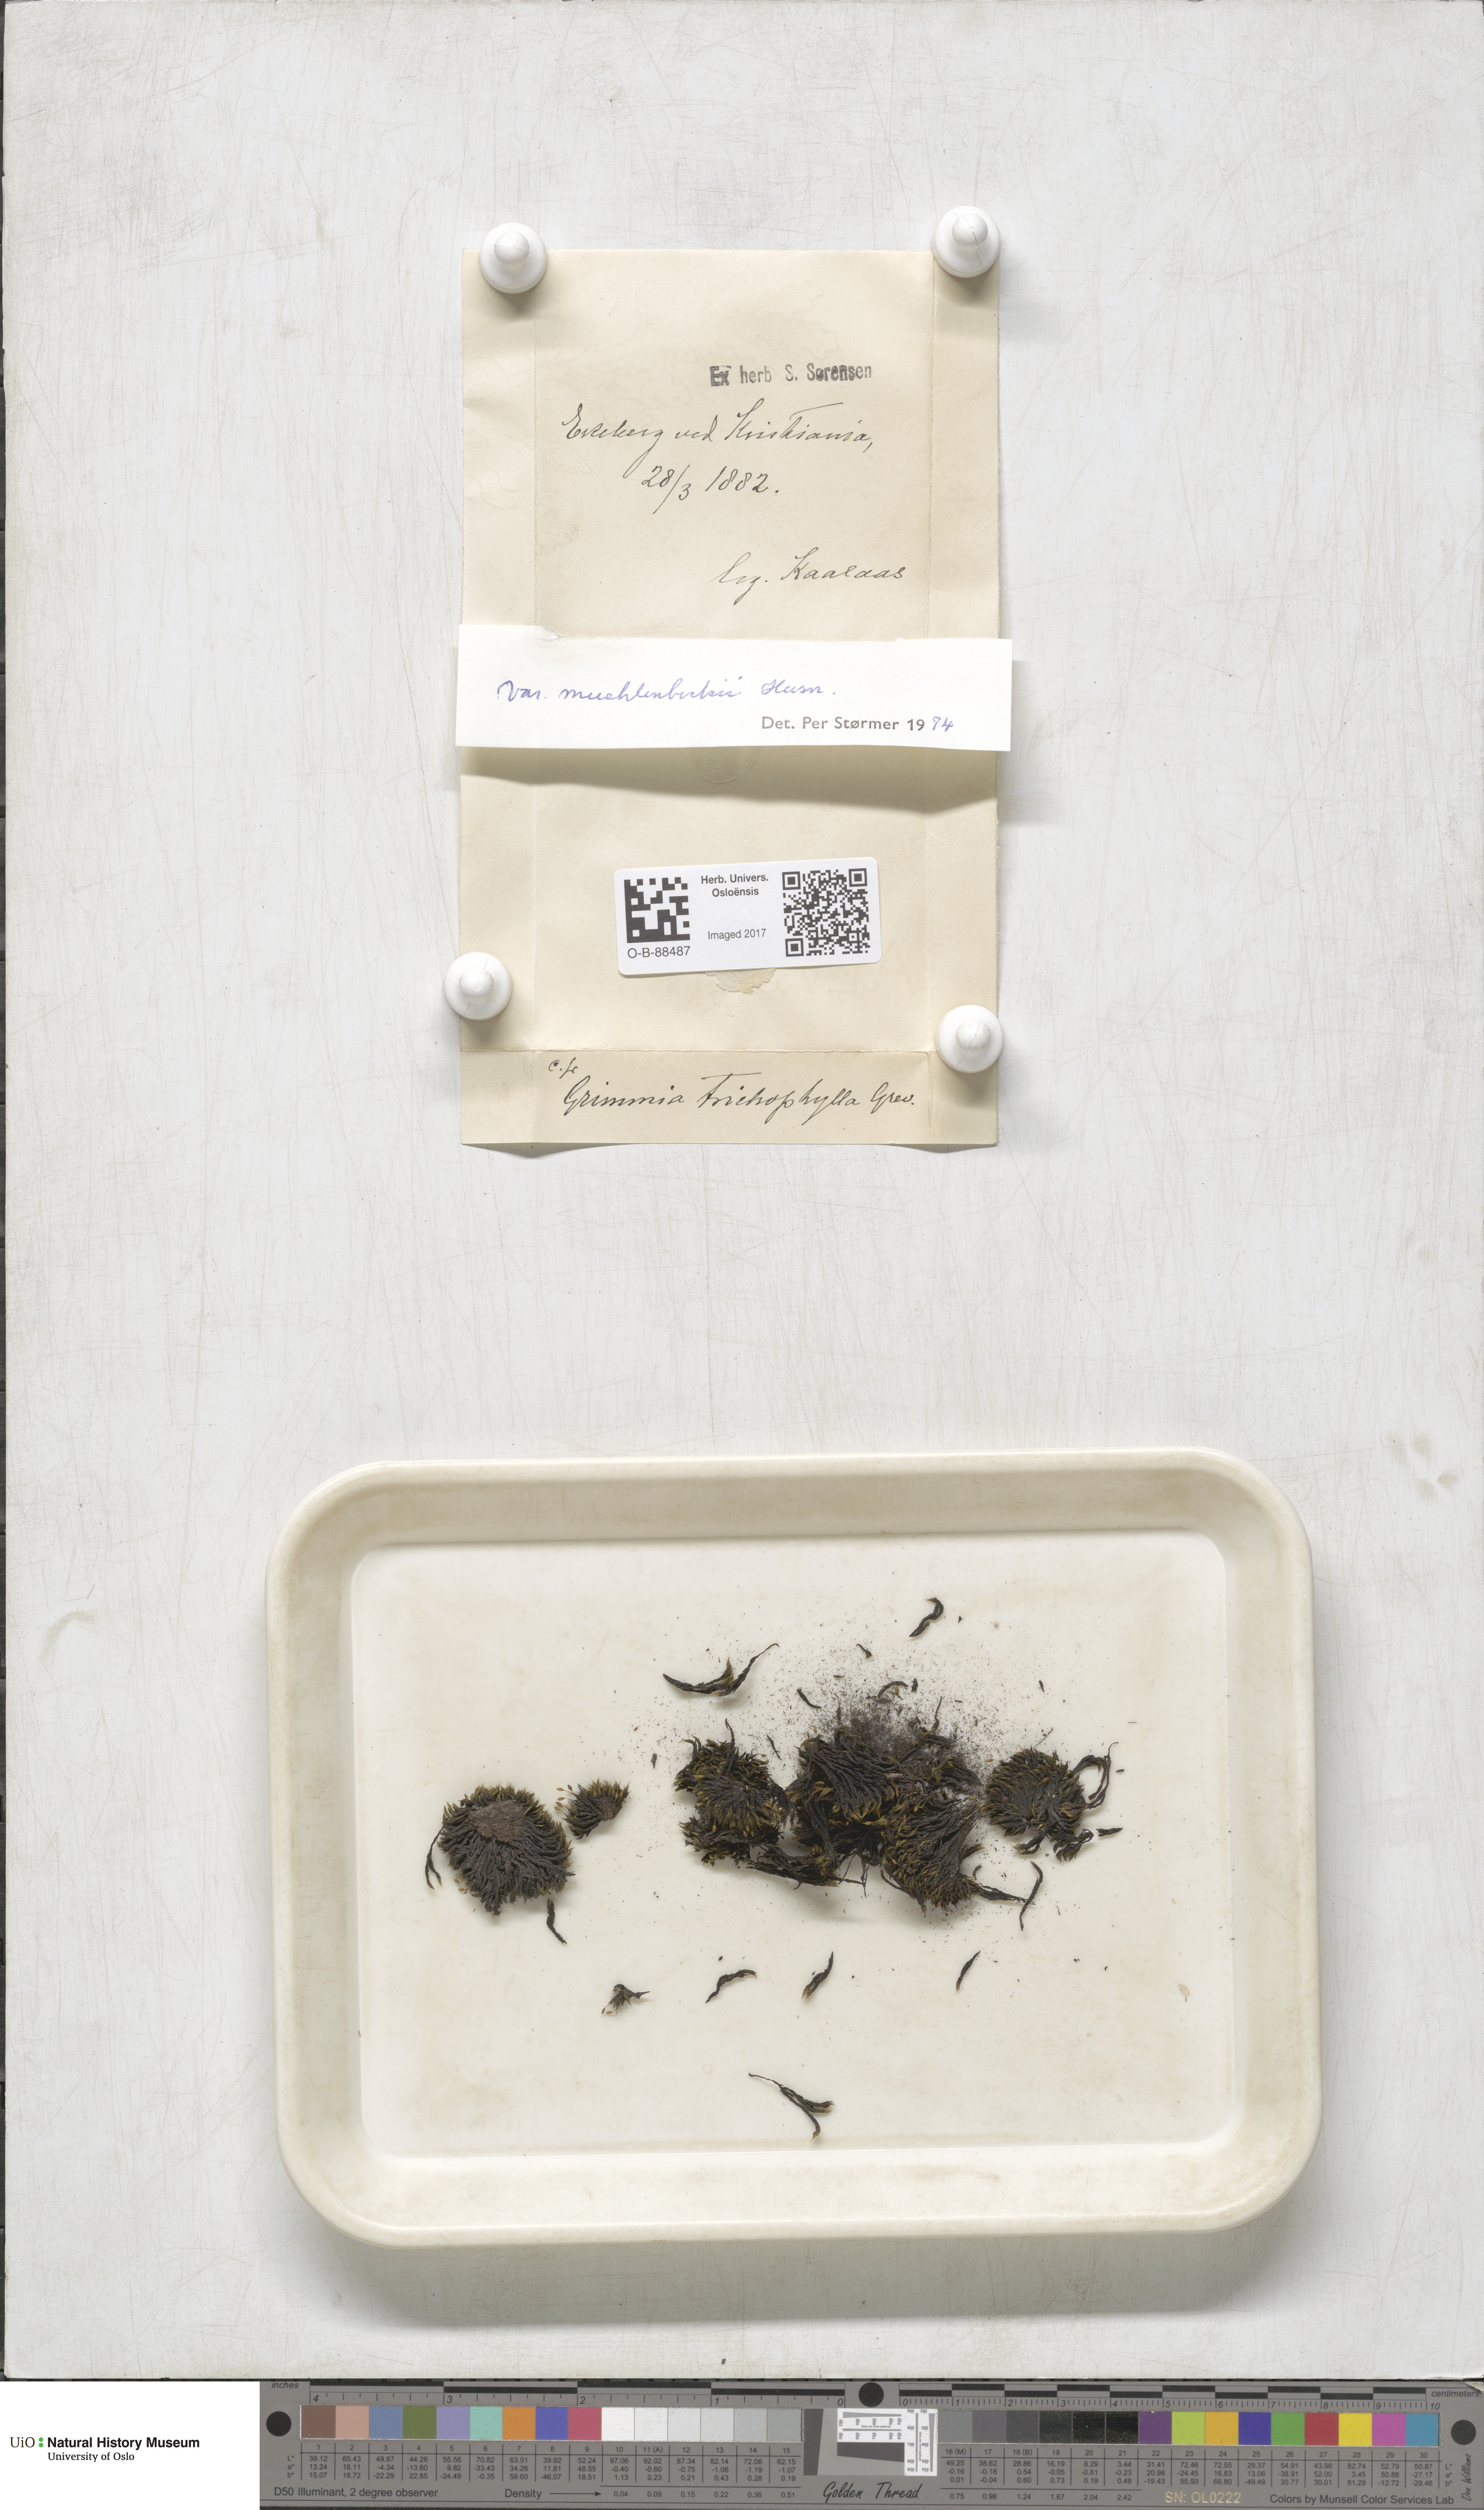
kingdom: Plantae
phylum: Bryophyta
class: Bryopsida
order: Grimmiales
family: Grimmiaceae
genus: Grimmia
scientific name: Grimmia trichophylla
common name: Hair-pointed grimmia
